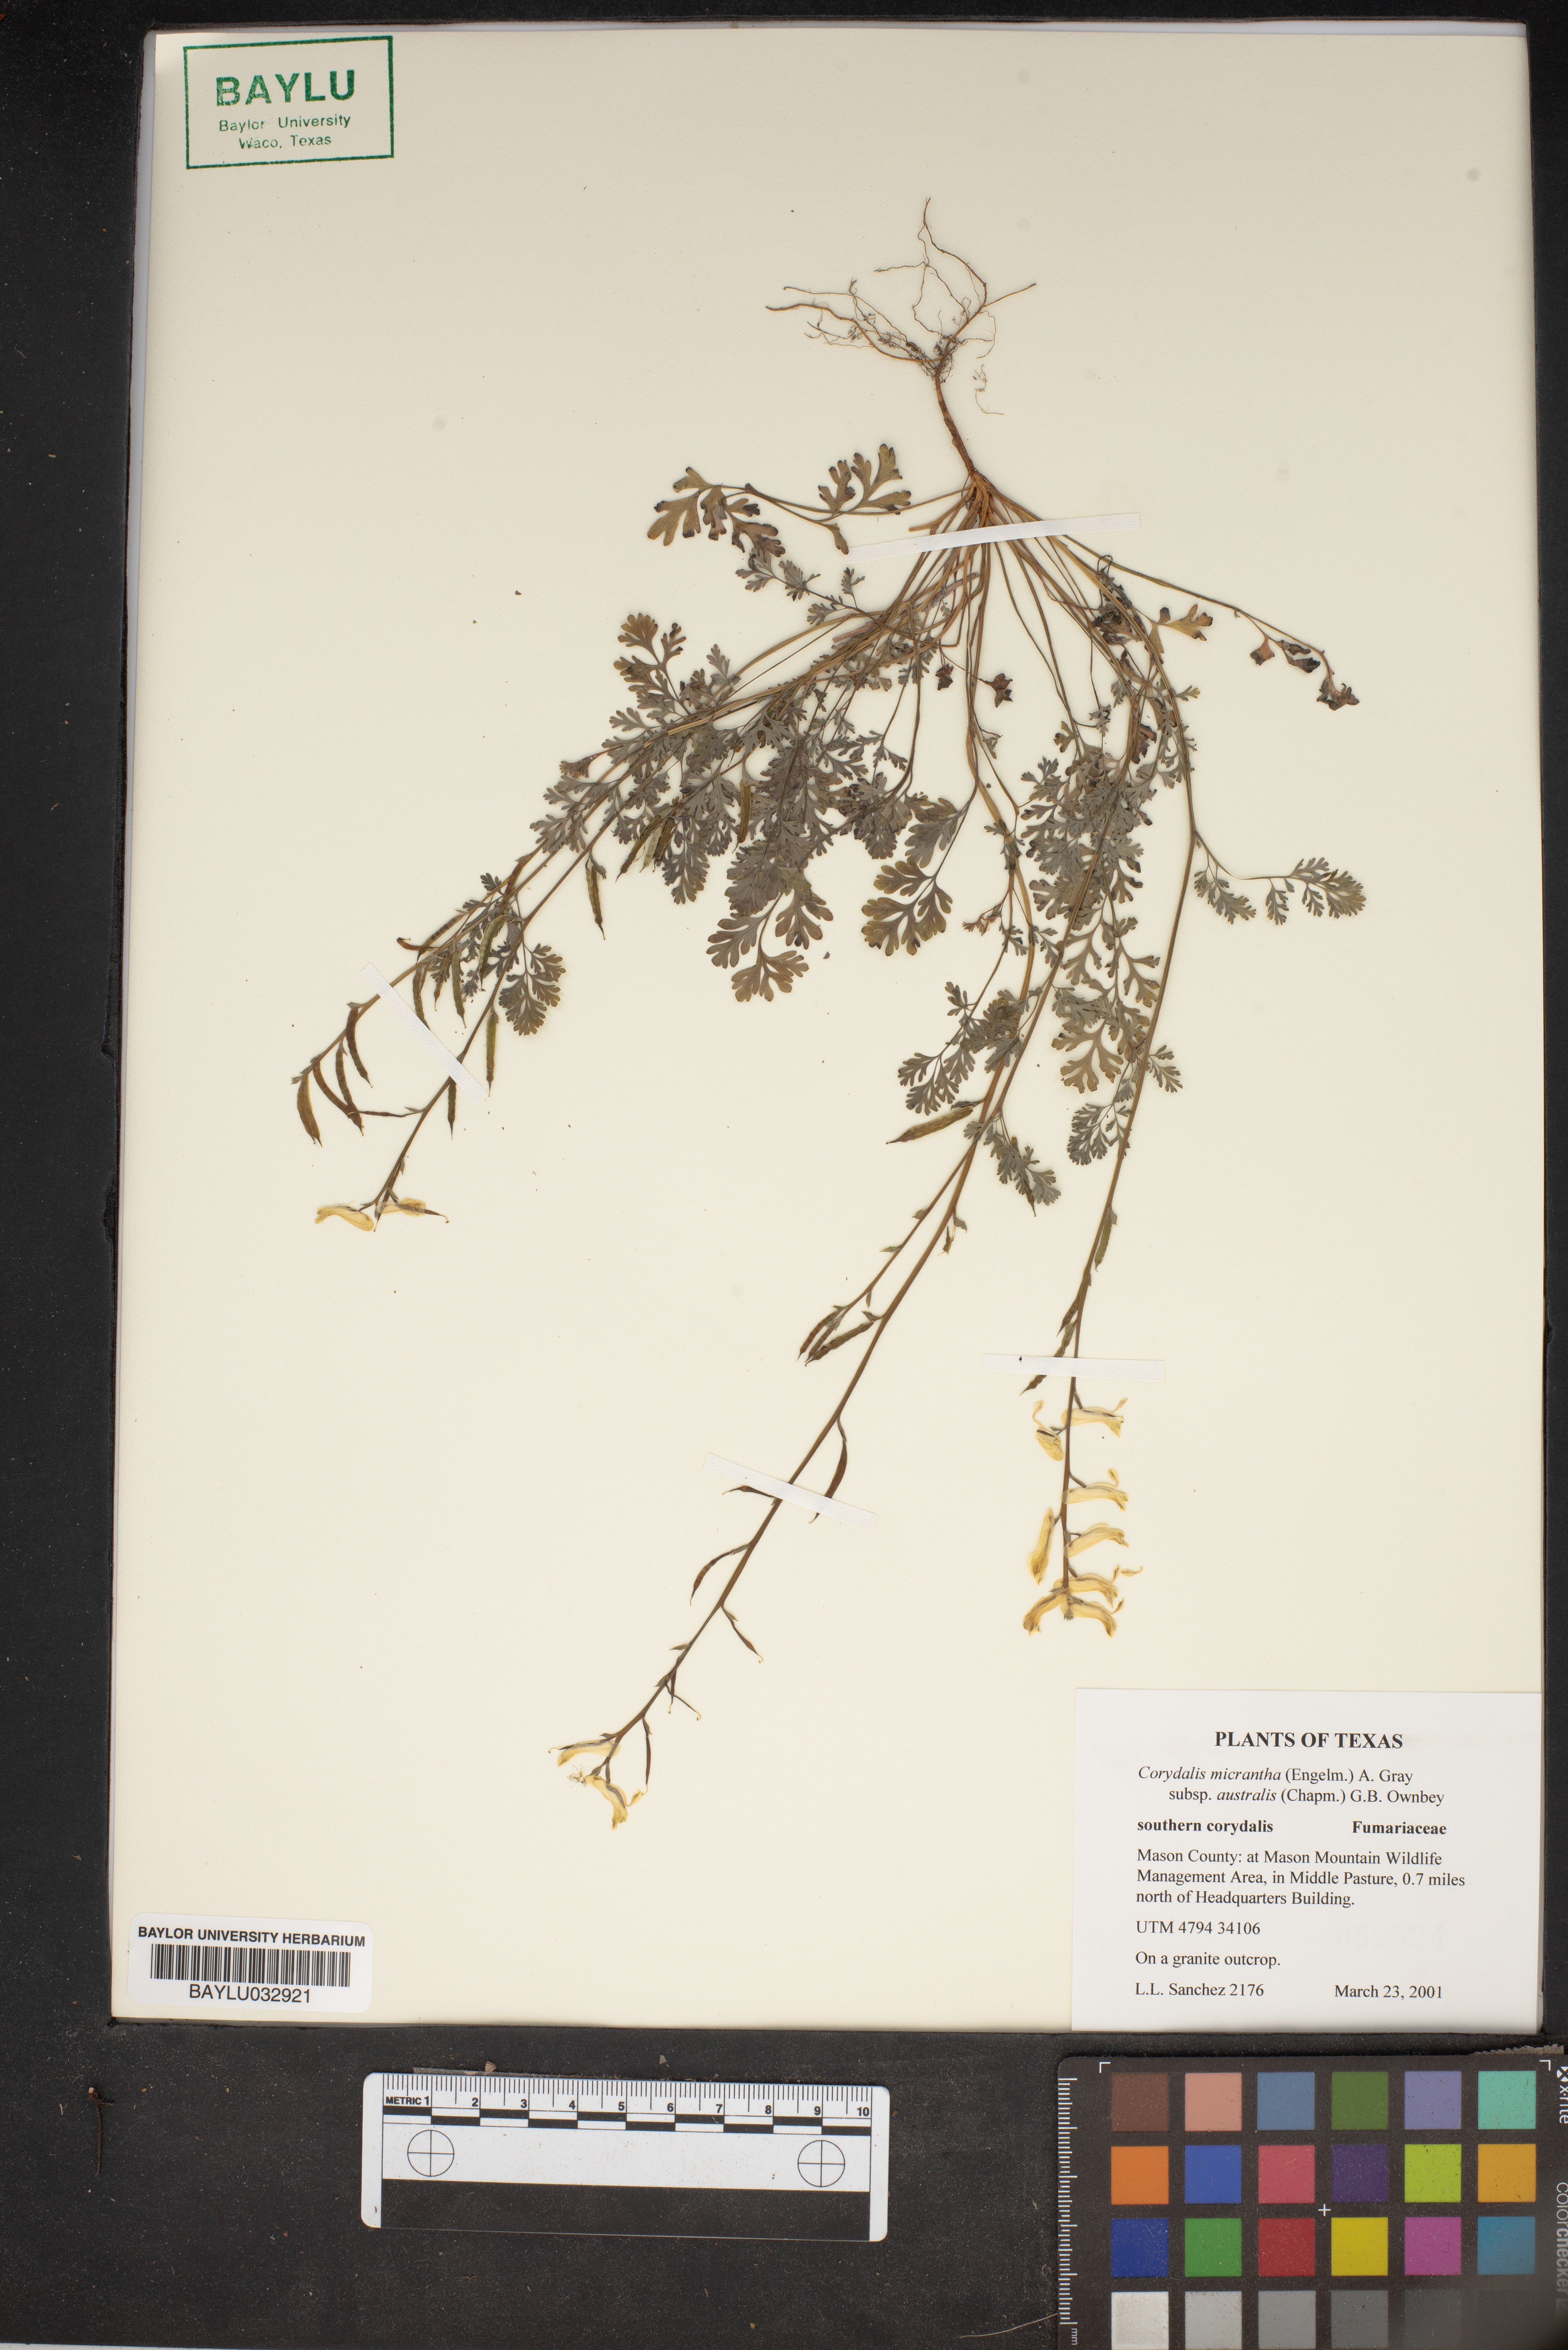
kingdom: Plantae
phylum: Tracheophyta
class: Magnoliopsida
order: Ranunculales
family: Papaveraceae
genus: Corydalis
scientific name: Corydalis micrantha
